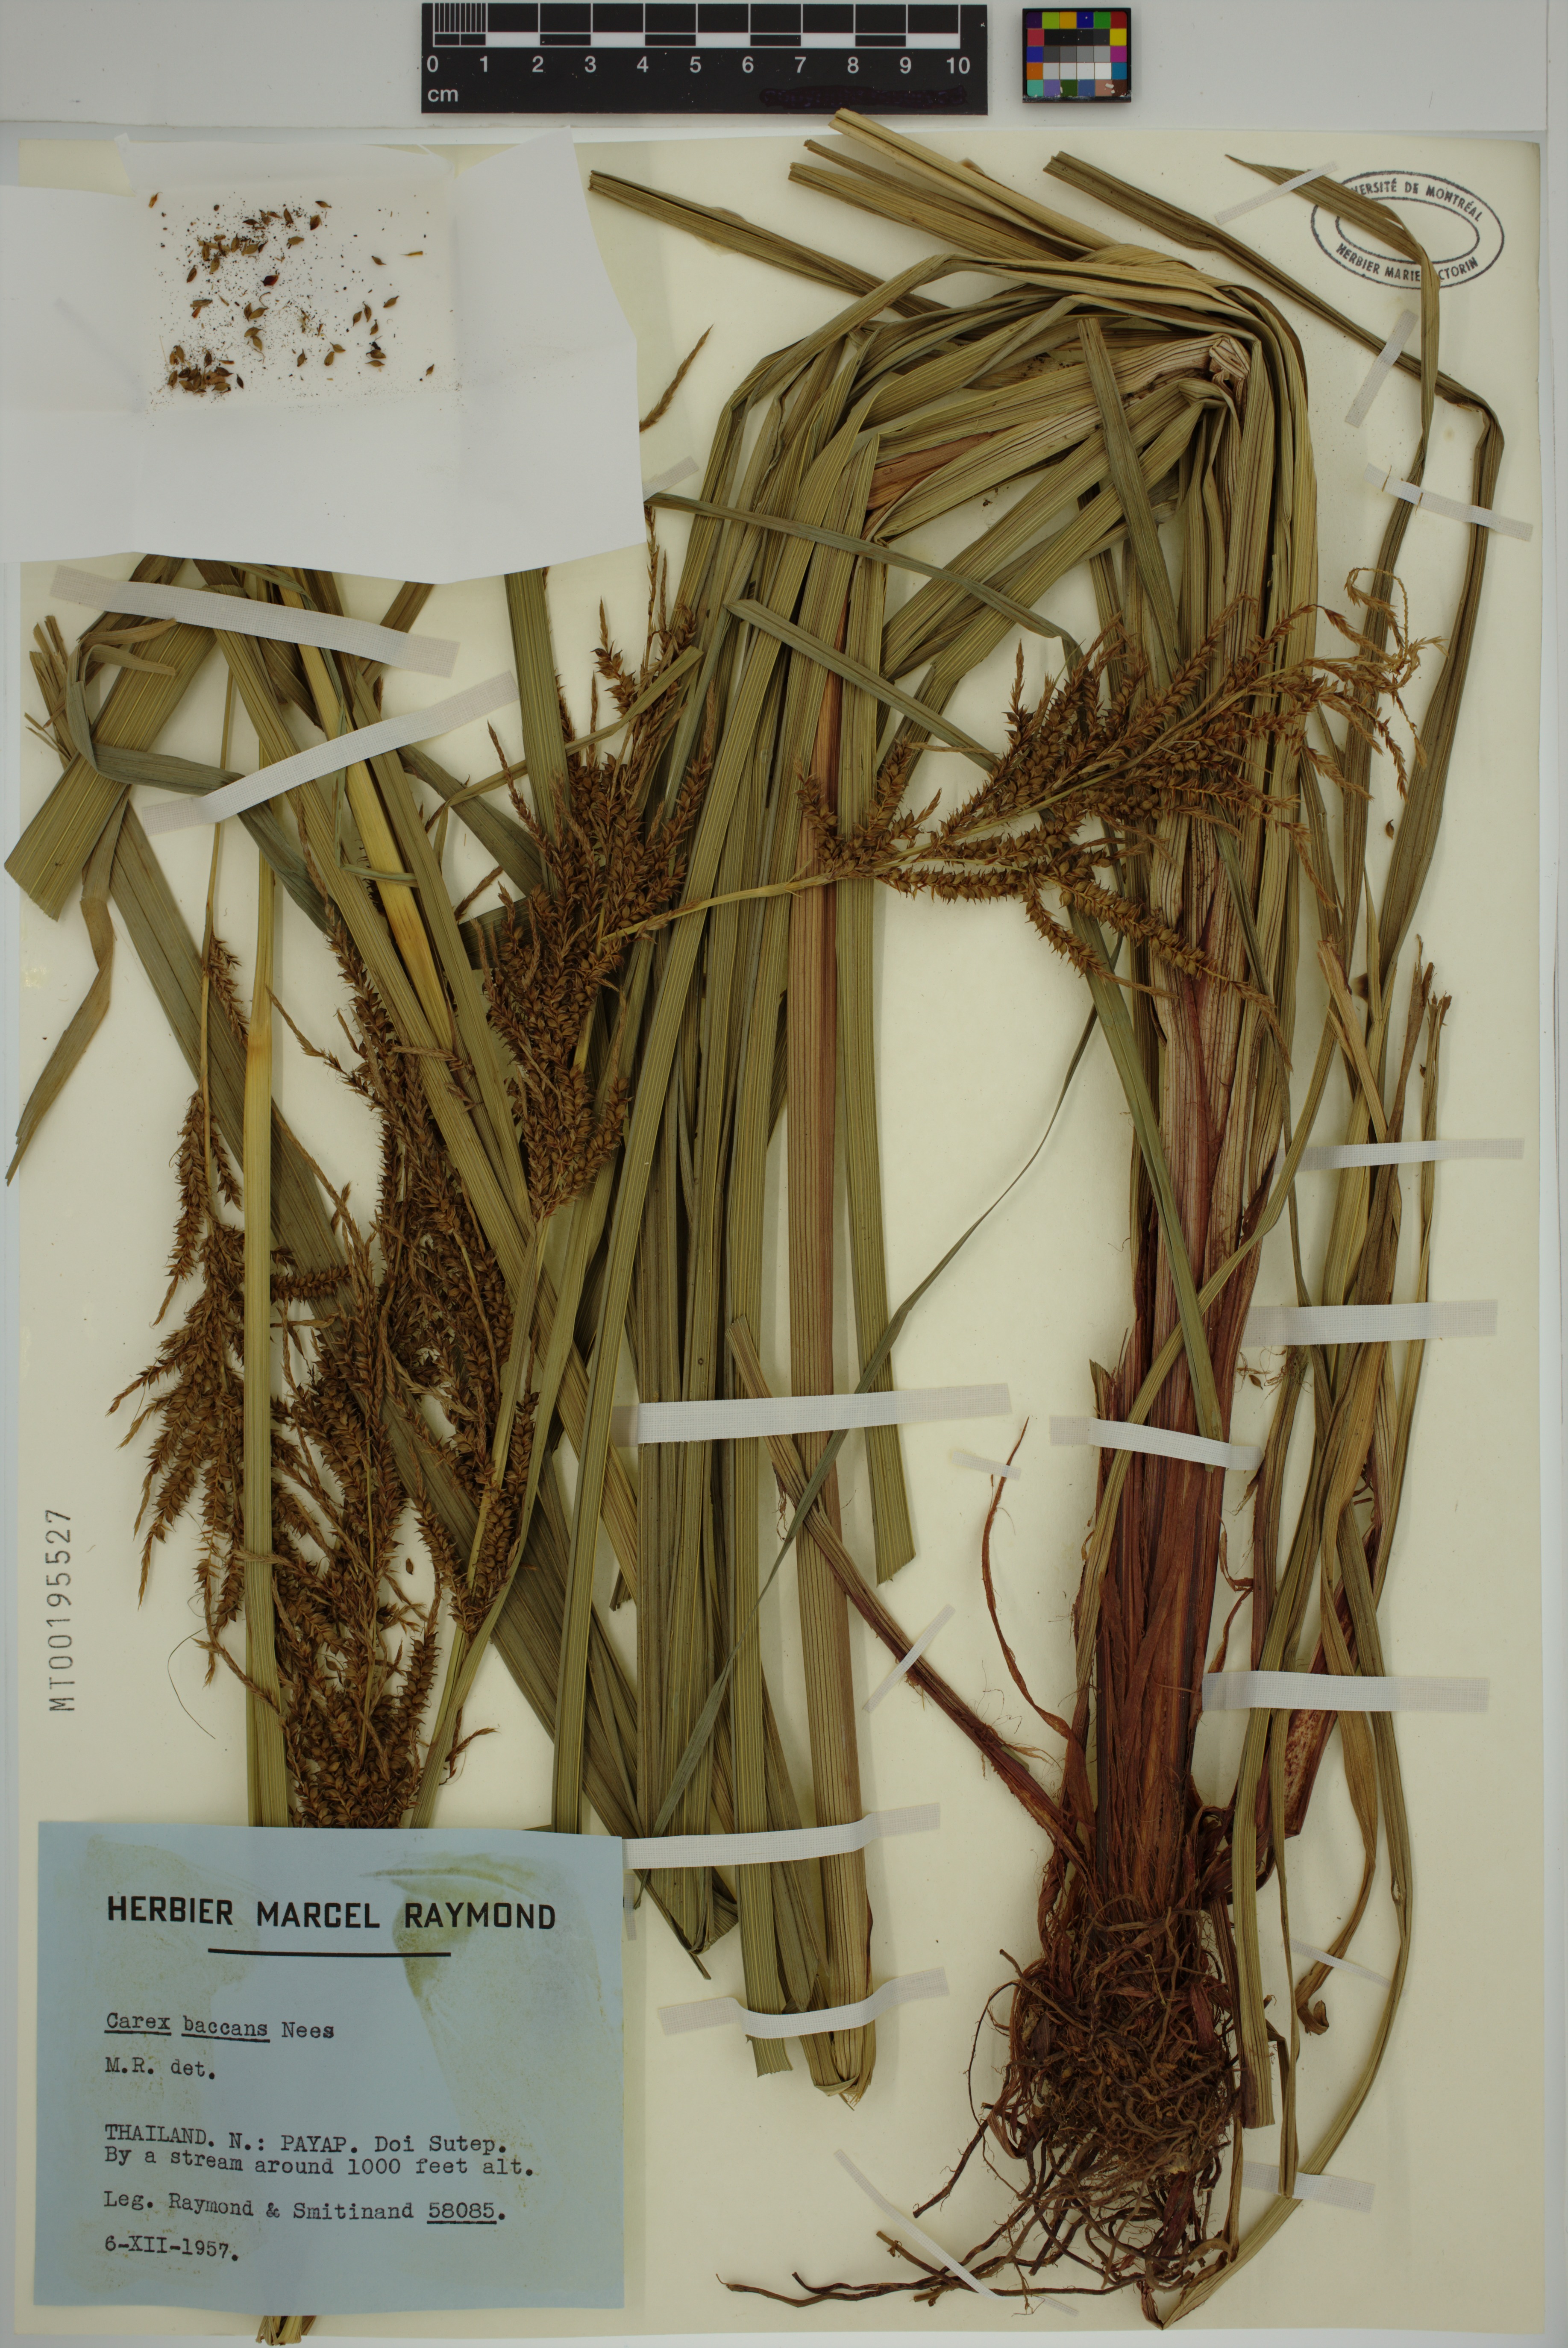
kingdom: Plantae
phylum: Tracheophyta
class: Liliopsida
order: Poales
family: Cyperaceae
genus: Carex
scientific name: Carex baccans
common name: Crimson seeded sedge
